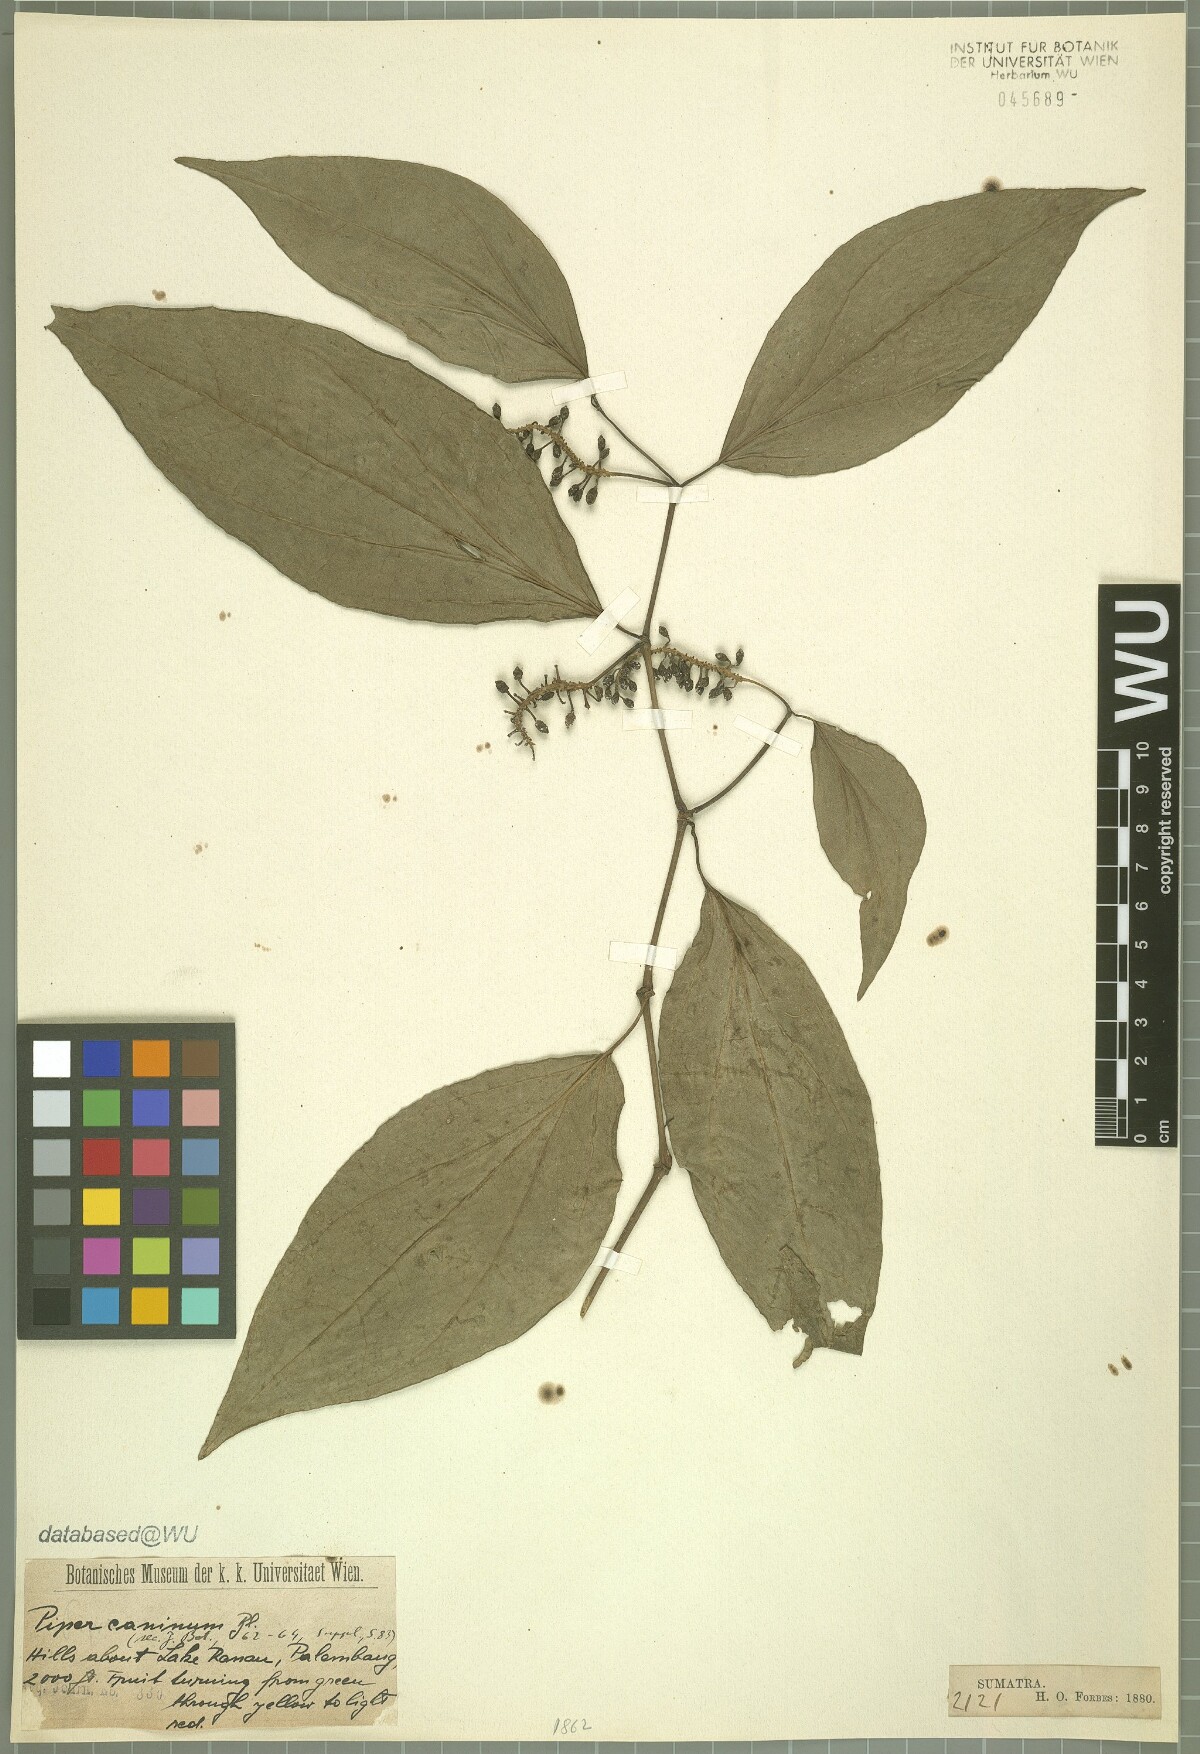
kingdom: Plantae
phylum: Tracheophyta
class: Magnoliopsida
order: Piperales
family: Piperaceae
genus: Piper
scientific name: Piper lanatum
